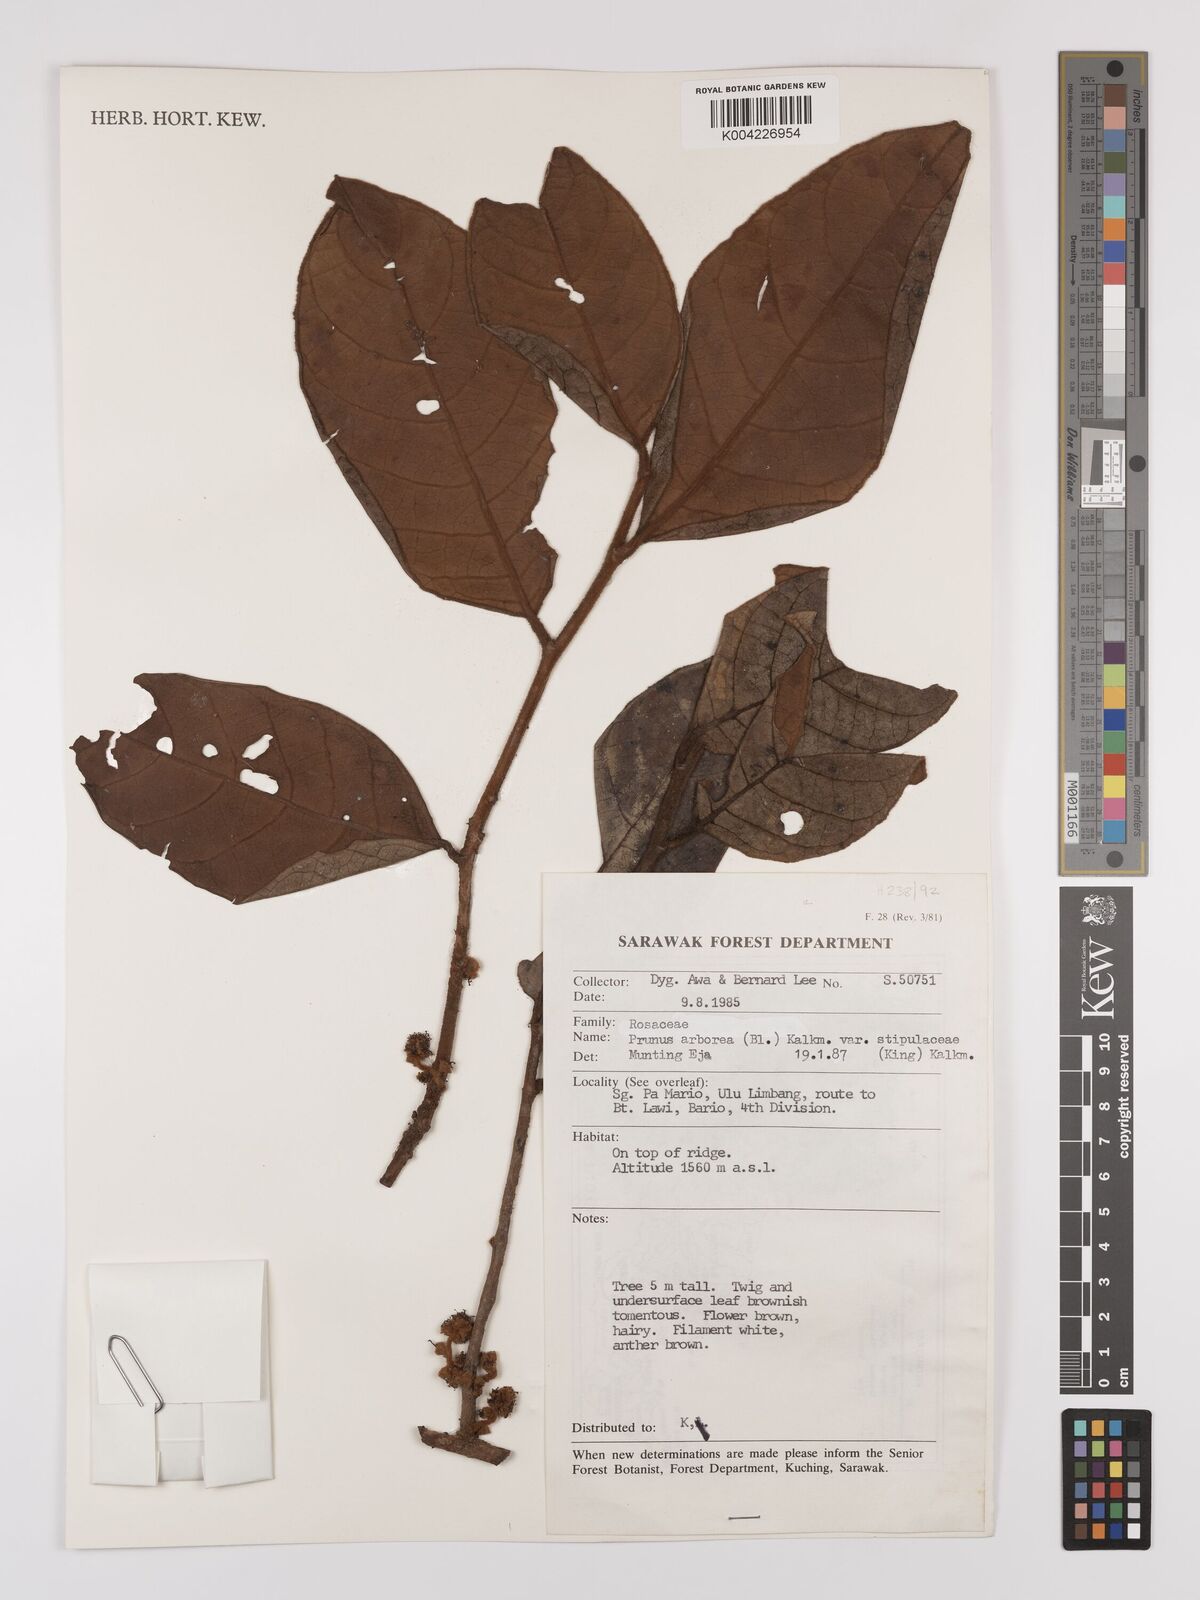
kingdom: Plantae
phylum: Tracheophyta
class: Magnoliopsida
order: Rosales
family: Rosaceae
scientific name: Rosaceae
